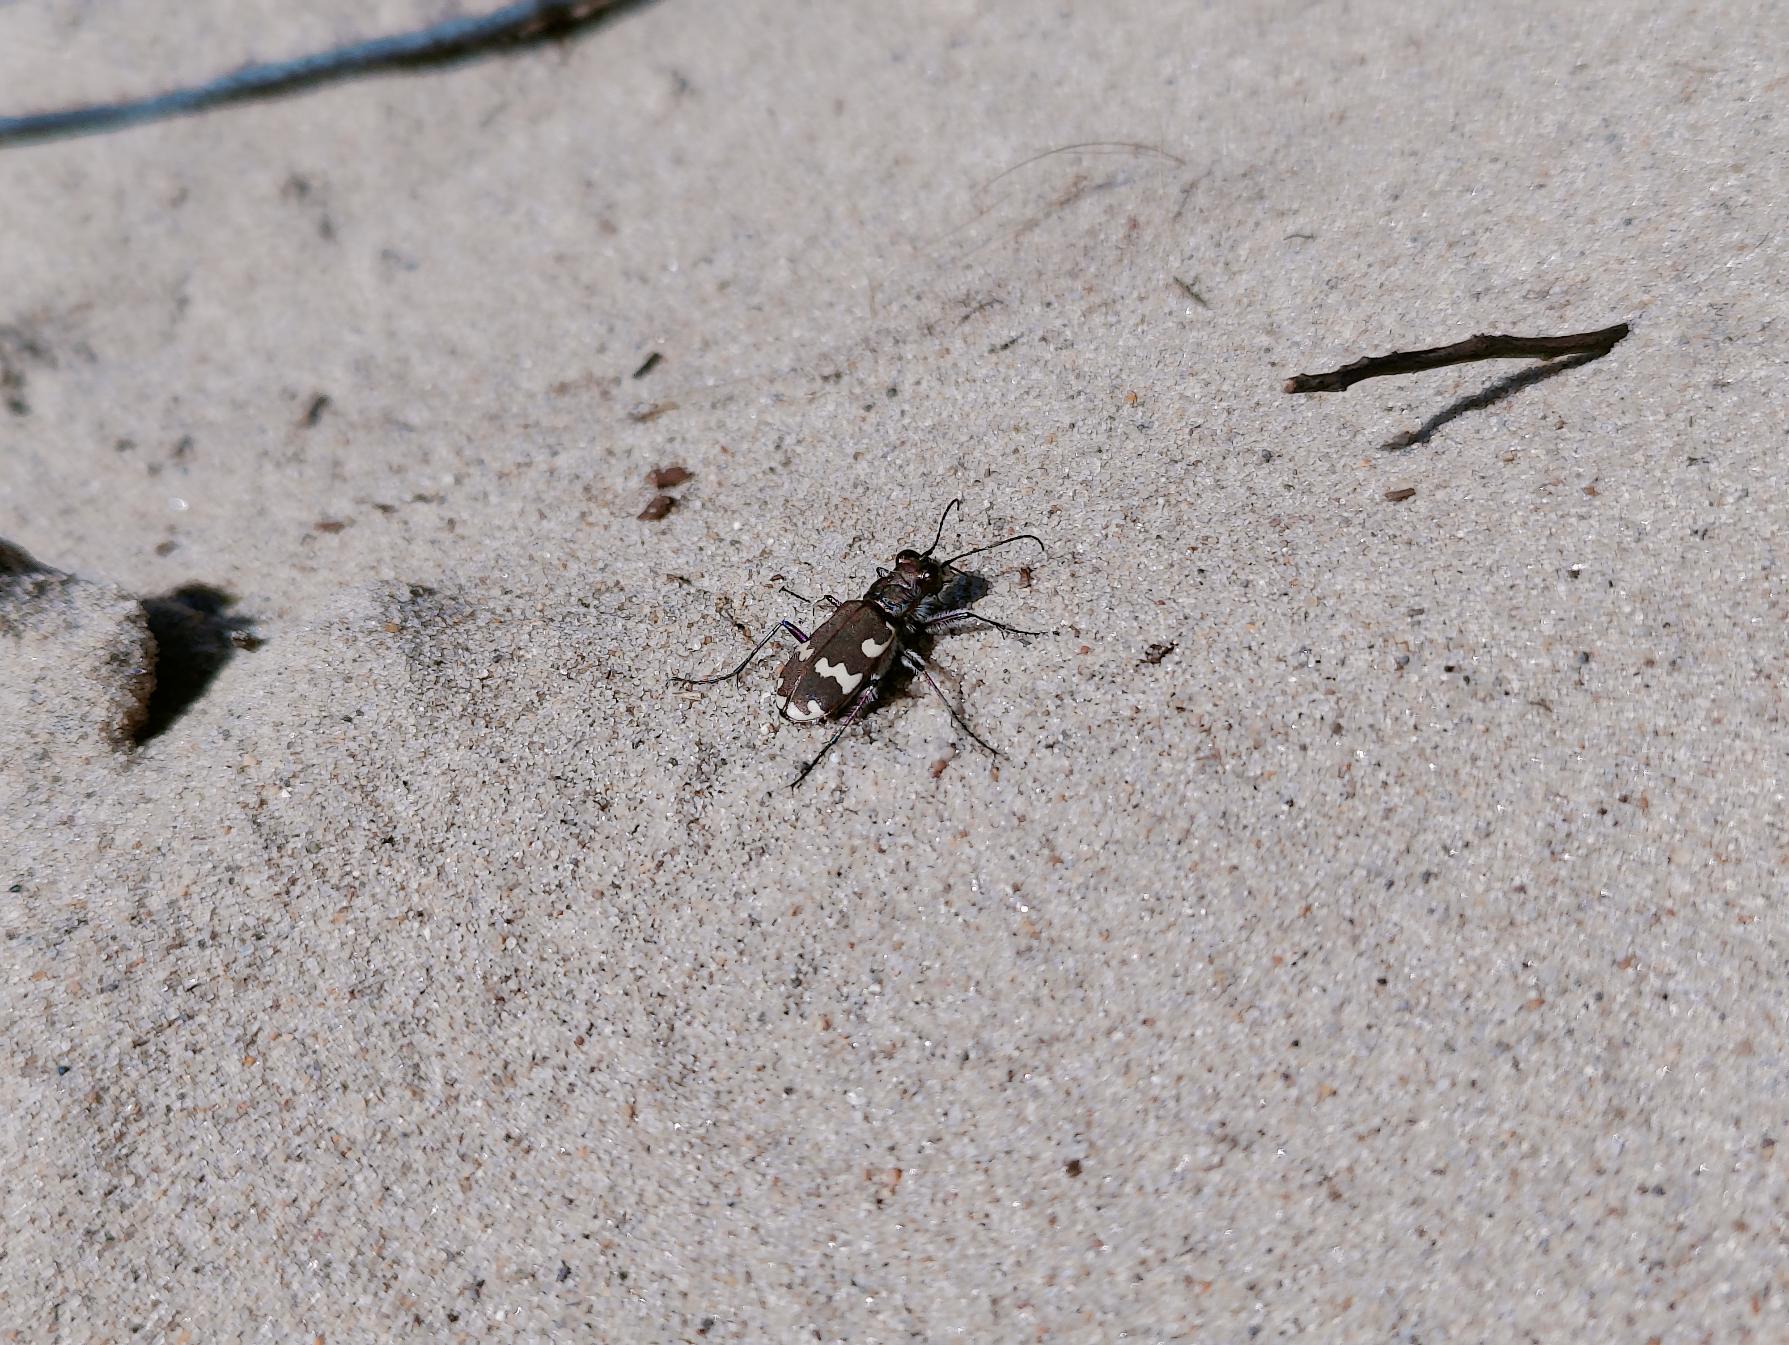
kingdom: Animalia
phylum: Arthropoda
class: Insecta
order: Coleoptera
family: Carabidae
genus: Cicindela
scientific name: Cicindela hybrida
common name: Brun sandspringer
